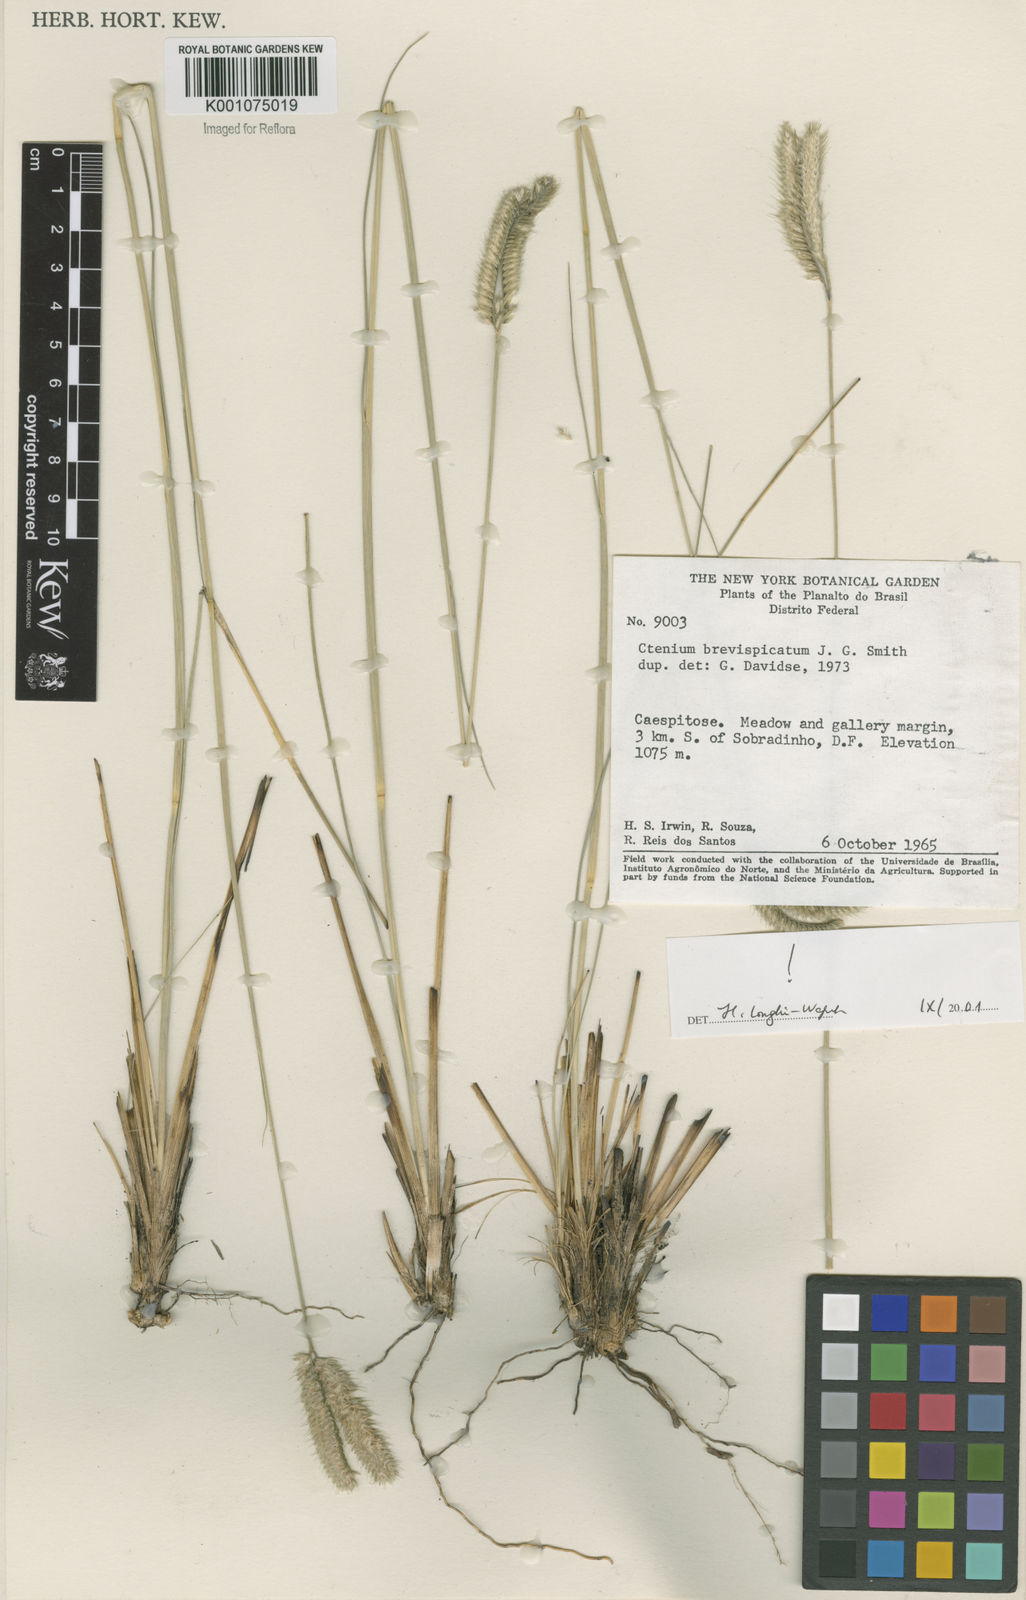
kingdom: Plantae
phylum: Tracheophyta
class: Liliopsida
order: Poales
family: Poaceae
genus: Ctenium
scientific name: Ctenium brevispicatum
